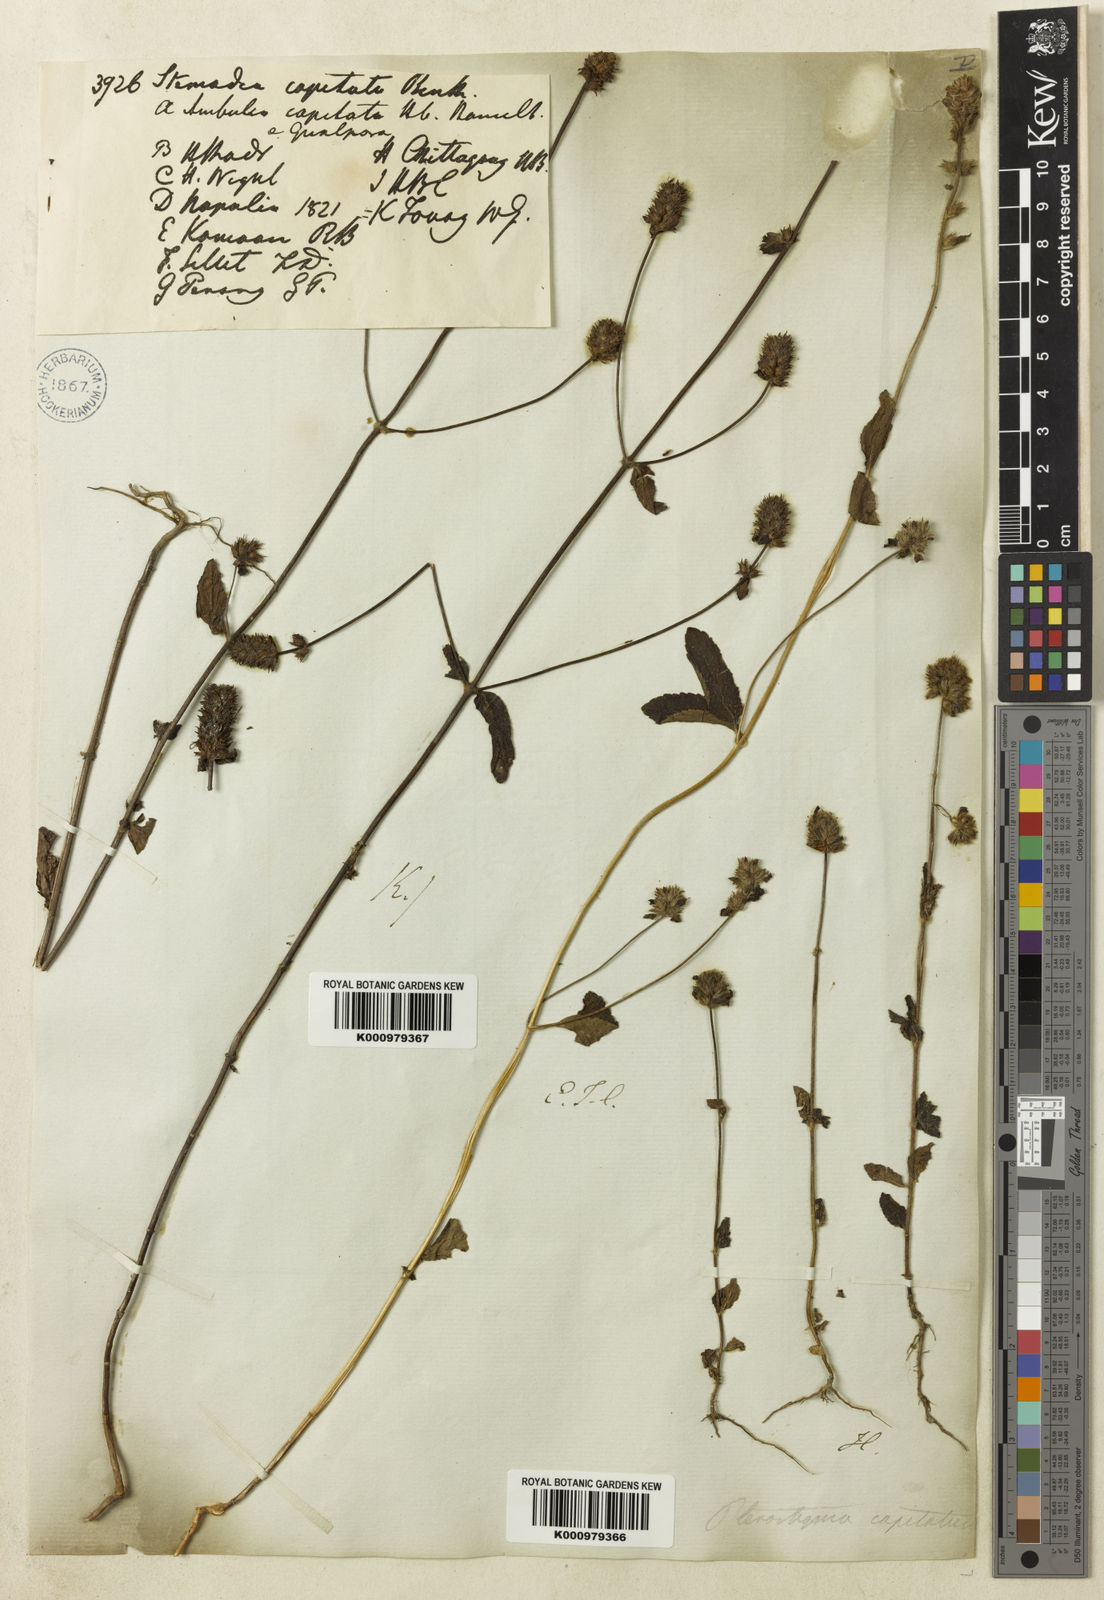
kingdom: Plantae
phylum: Tracheophyta
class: Magnoliopsida
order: Lamiales
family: Plantaginaceae
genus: Adenosma
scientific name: Adenosma indiana
